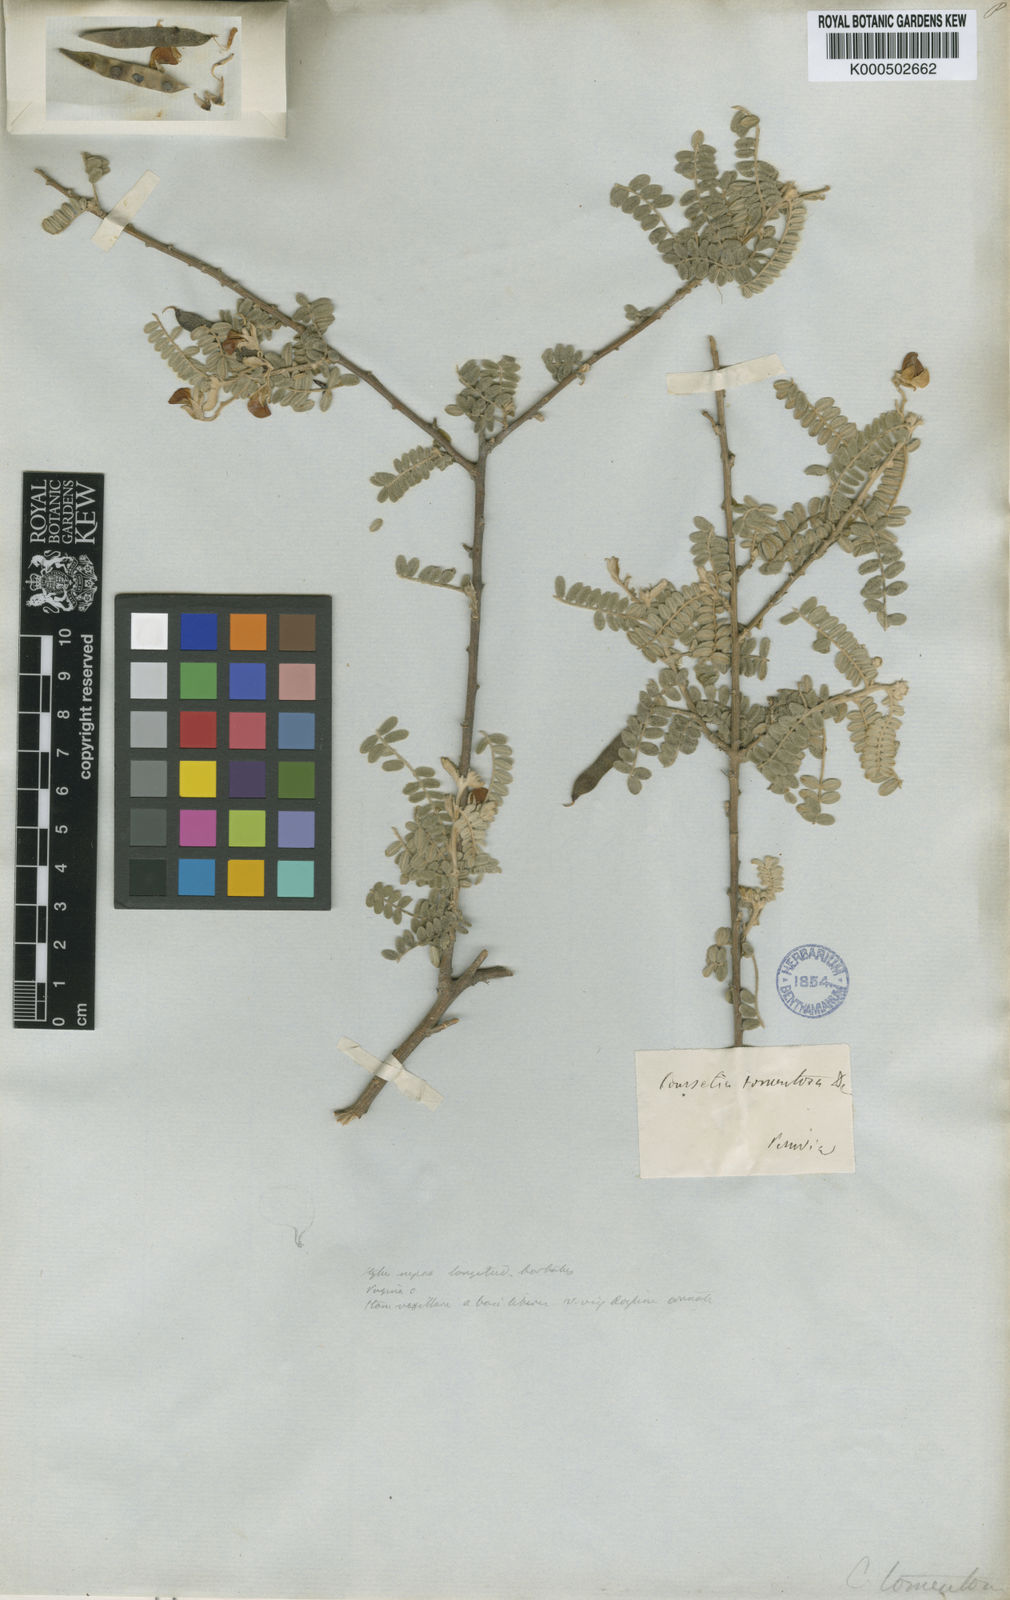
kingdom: Plantae
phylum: Tracheophyta
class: Magnoliopsida
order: Fabales
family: Fabaceae
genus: Coursetia
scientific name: Coursetia fruticosa
